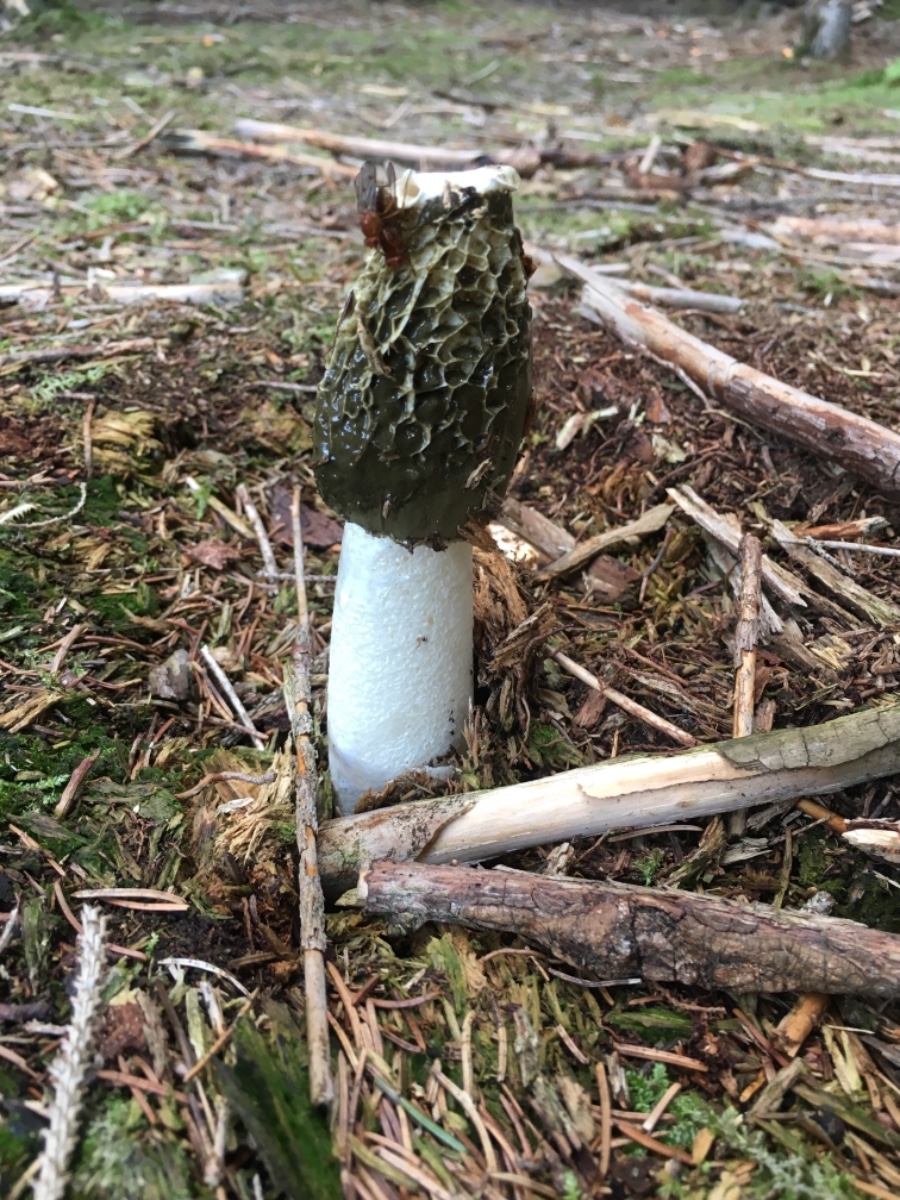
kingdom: Fungi
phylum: Basidiomycota
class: Agaricomycetes
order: Phallales
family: Phallaceae
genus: Phallus
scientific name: Phallus impudicus
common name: almindelig stinksvamp
